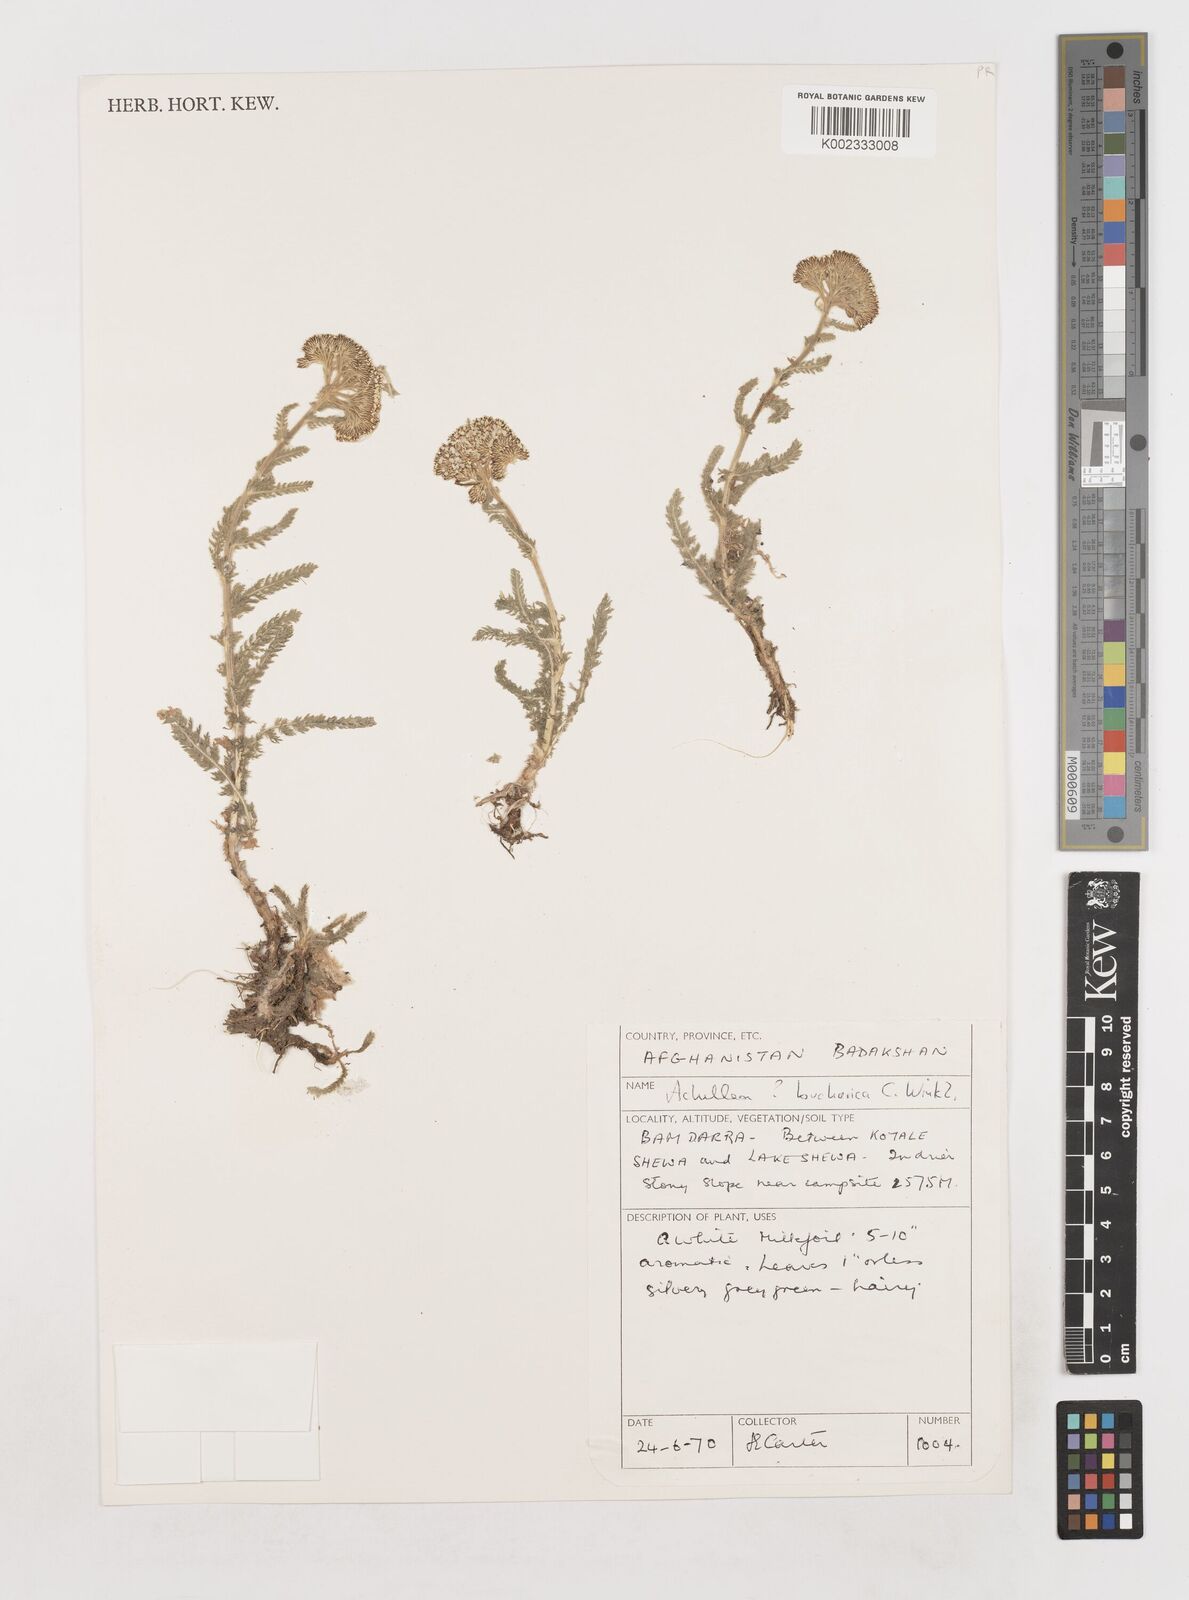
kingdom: Plantae
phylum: Tracheophyta
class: Magnoliopsida
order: Asterales
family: Asteraceae
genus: Achillea
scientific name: Achillea bucharica
